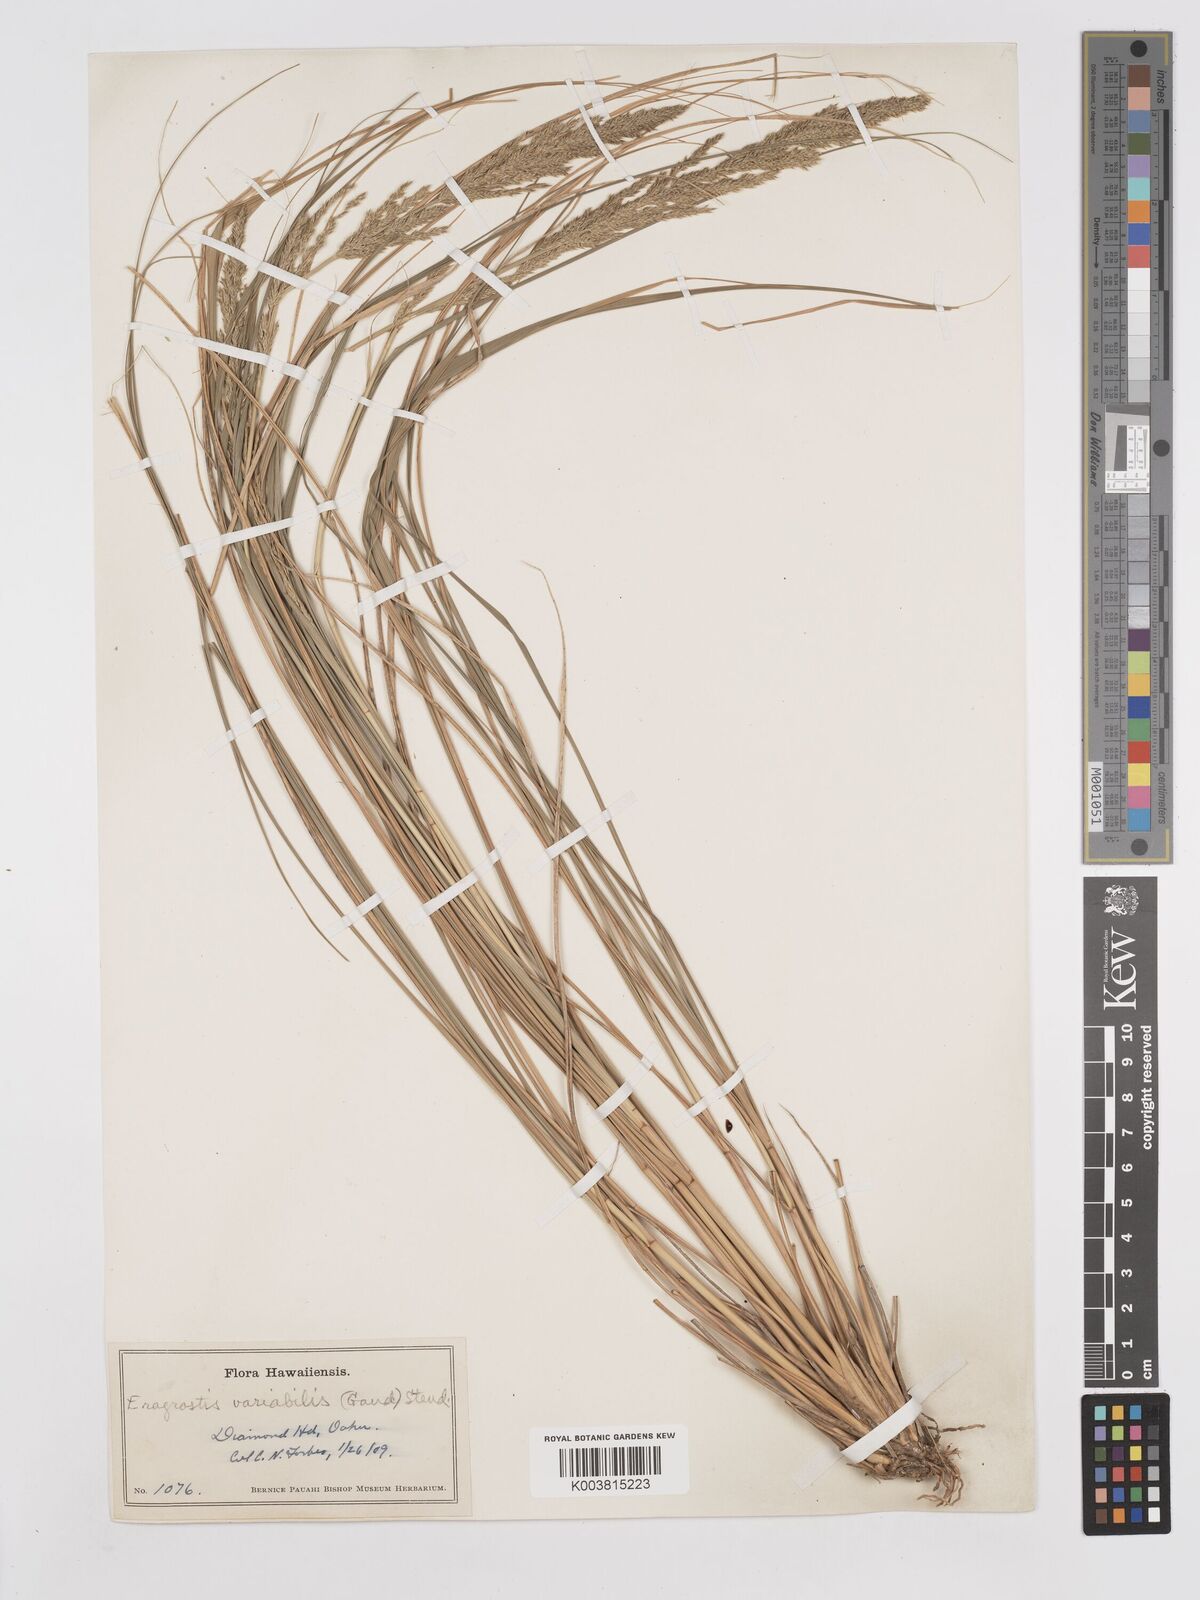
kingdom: Plantae
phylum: Tracheophyta
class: Liliopsida
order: Poales
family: Poaceae
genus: Eragrostis
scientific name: Eragrostis variabilis
